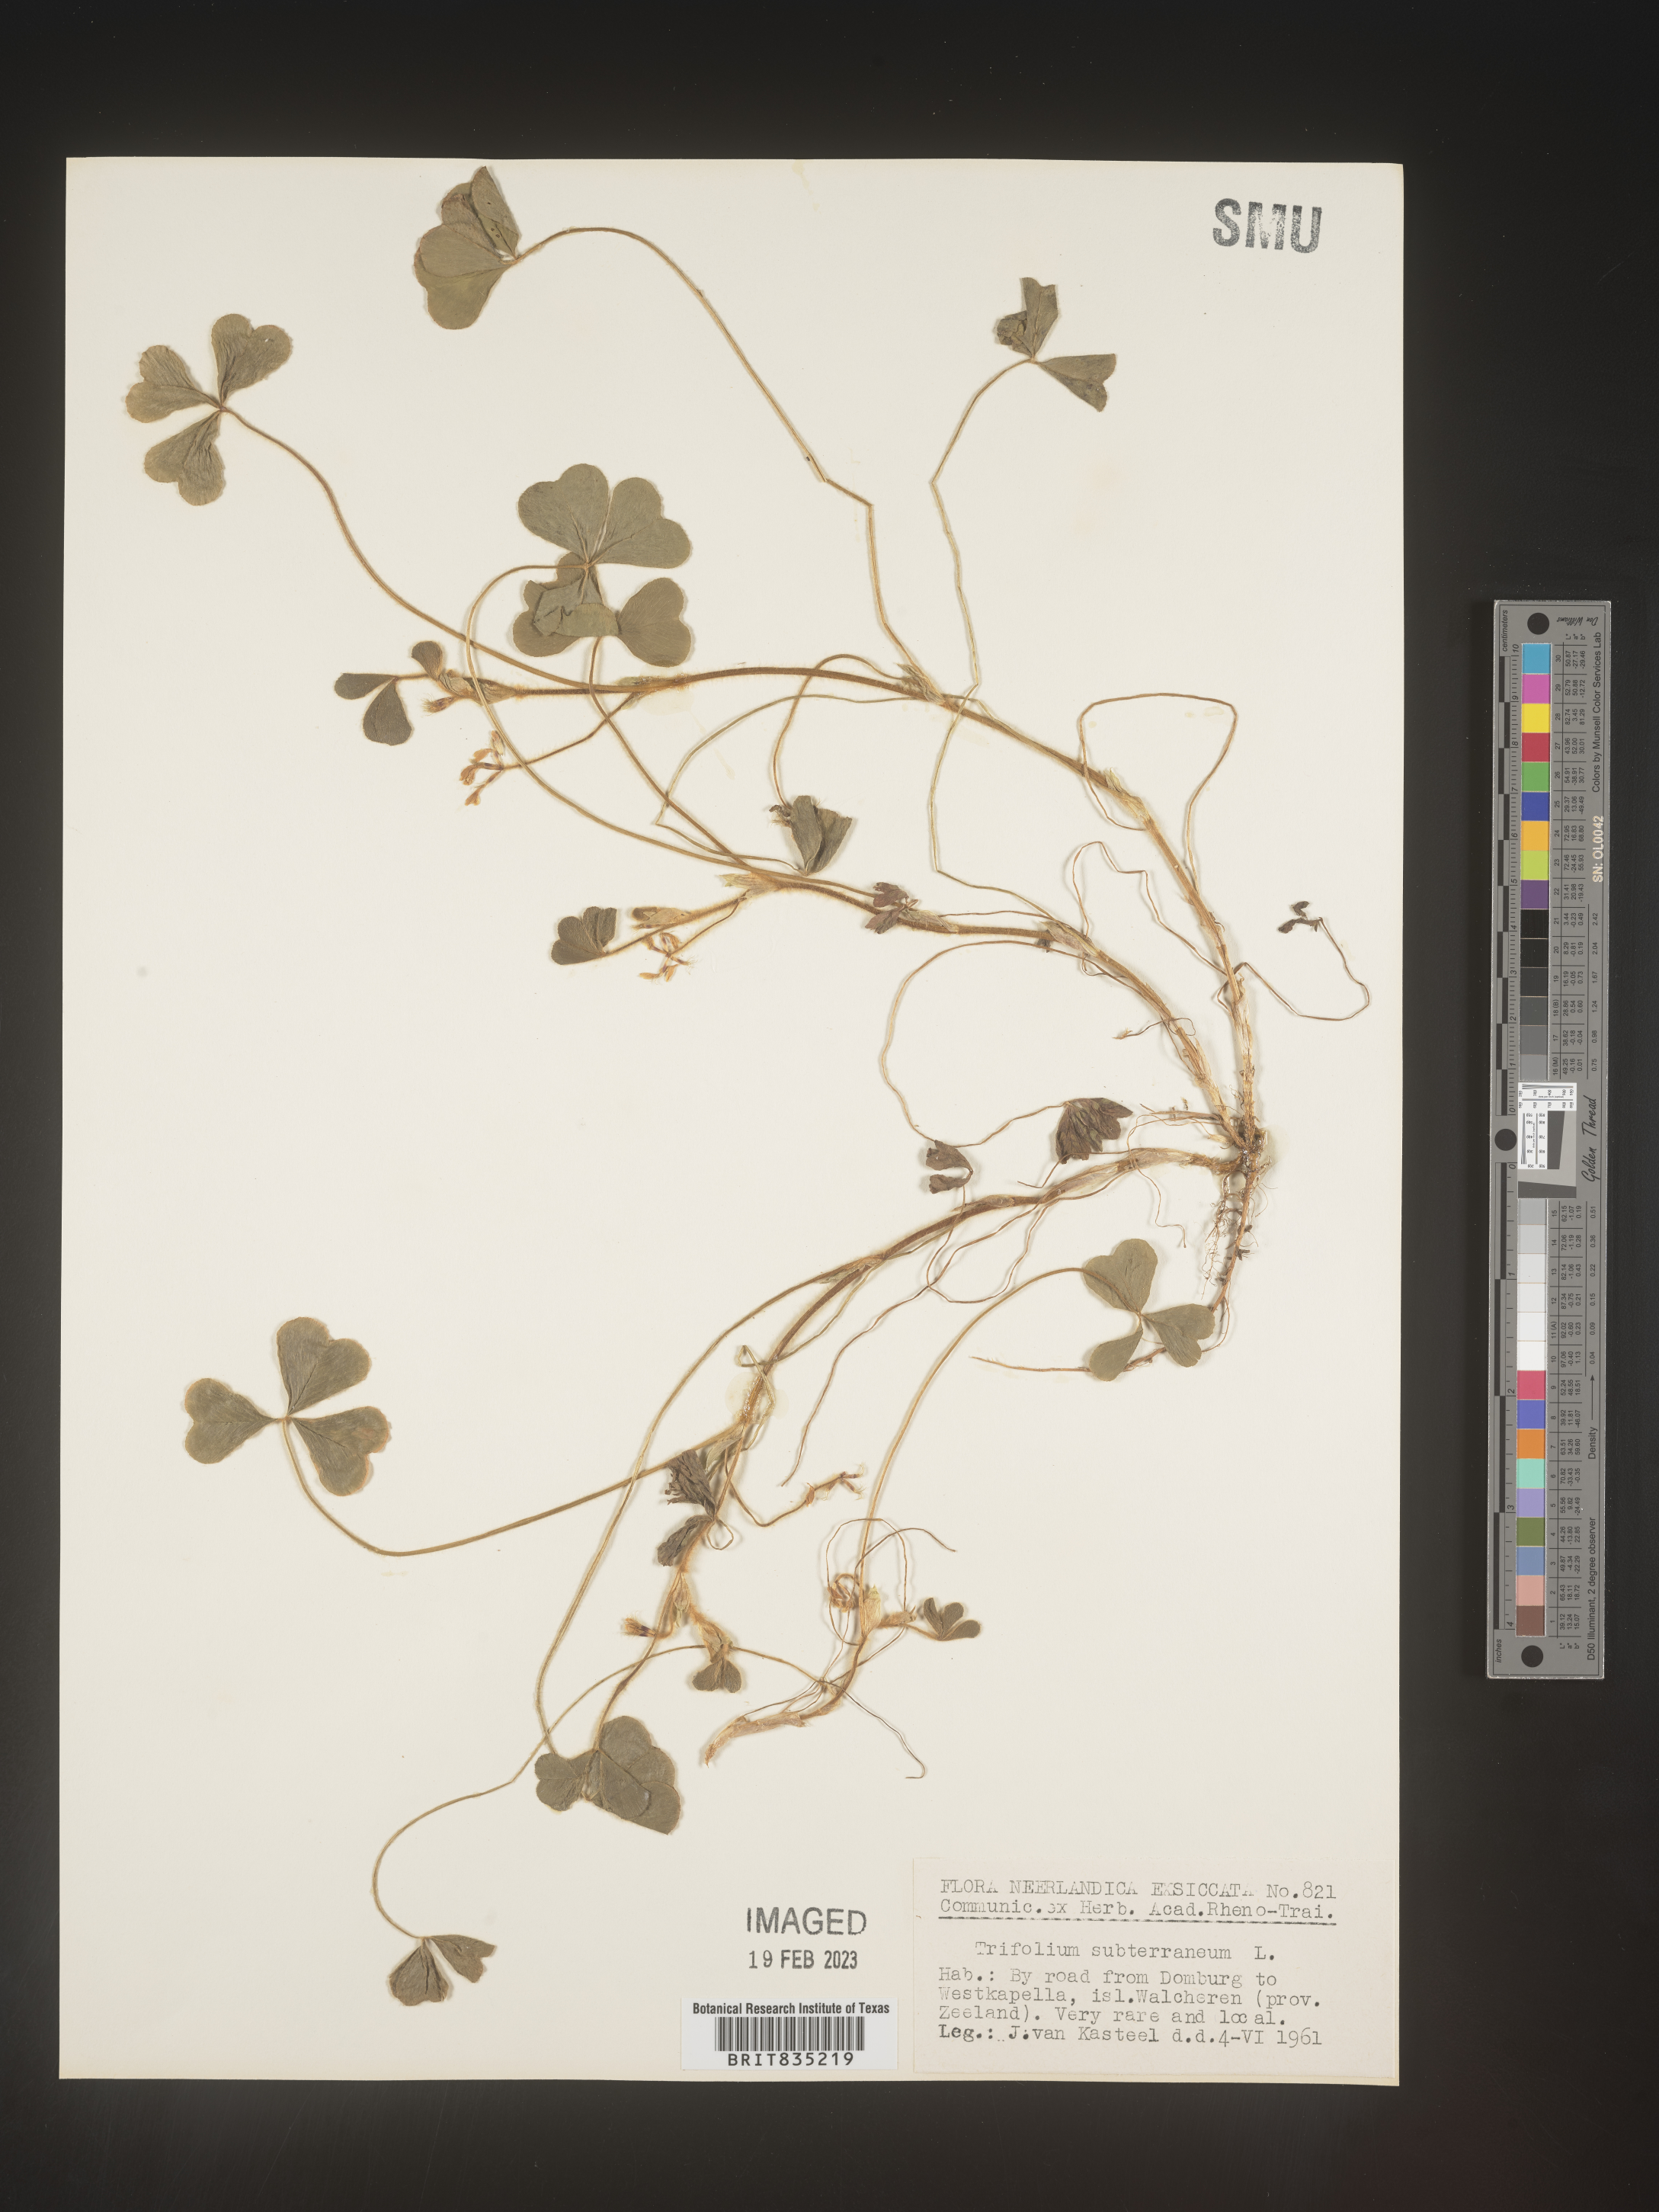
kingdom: Plantae
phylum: Tracheophyta
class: Magnoliopsida
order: Fabales
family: Fabaceae
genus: Trifolium
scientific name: Trifolium
